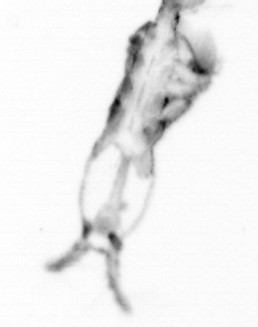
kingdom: Animalia
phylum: Arthropoda
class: Copepoda
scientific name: Copepoda
